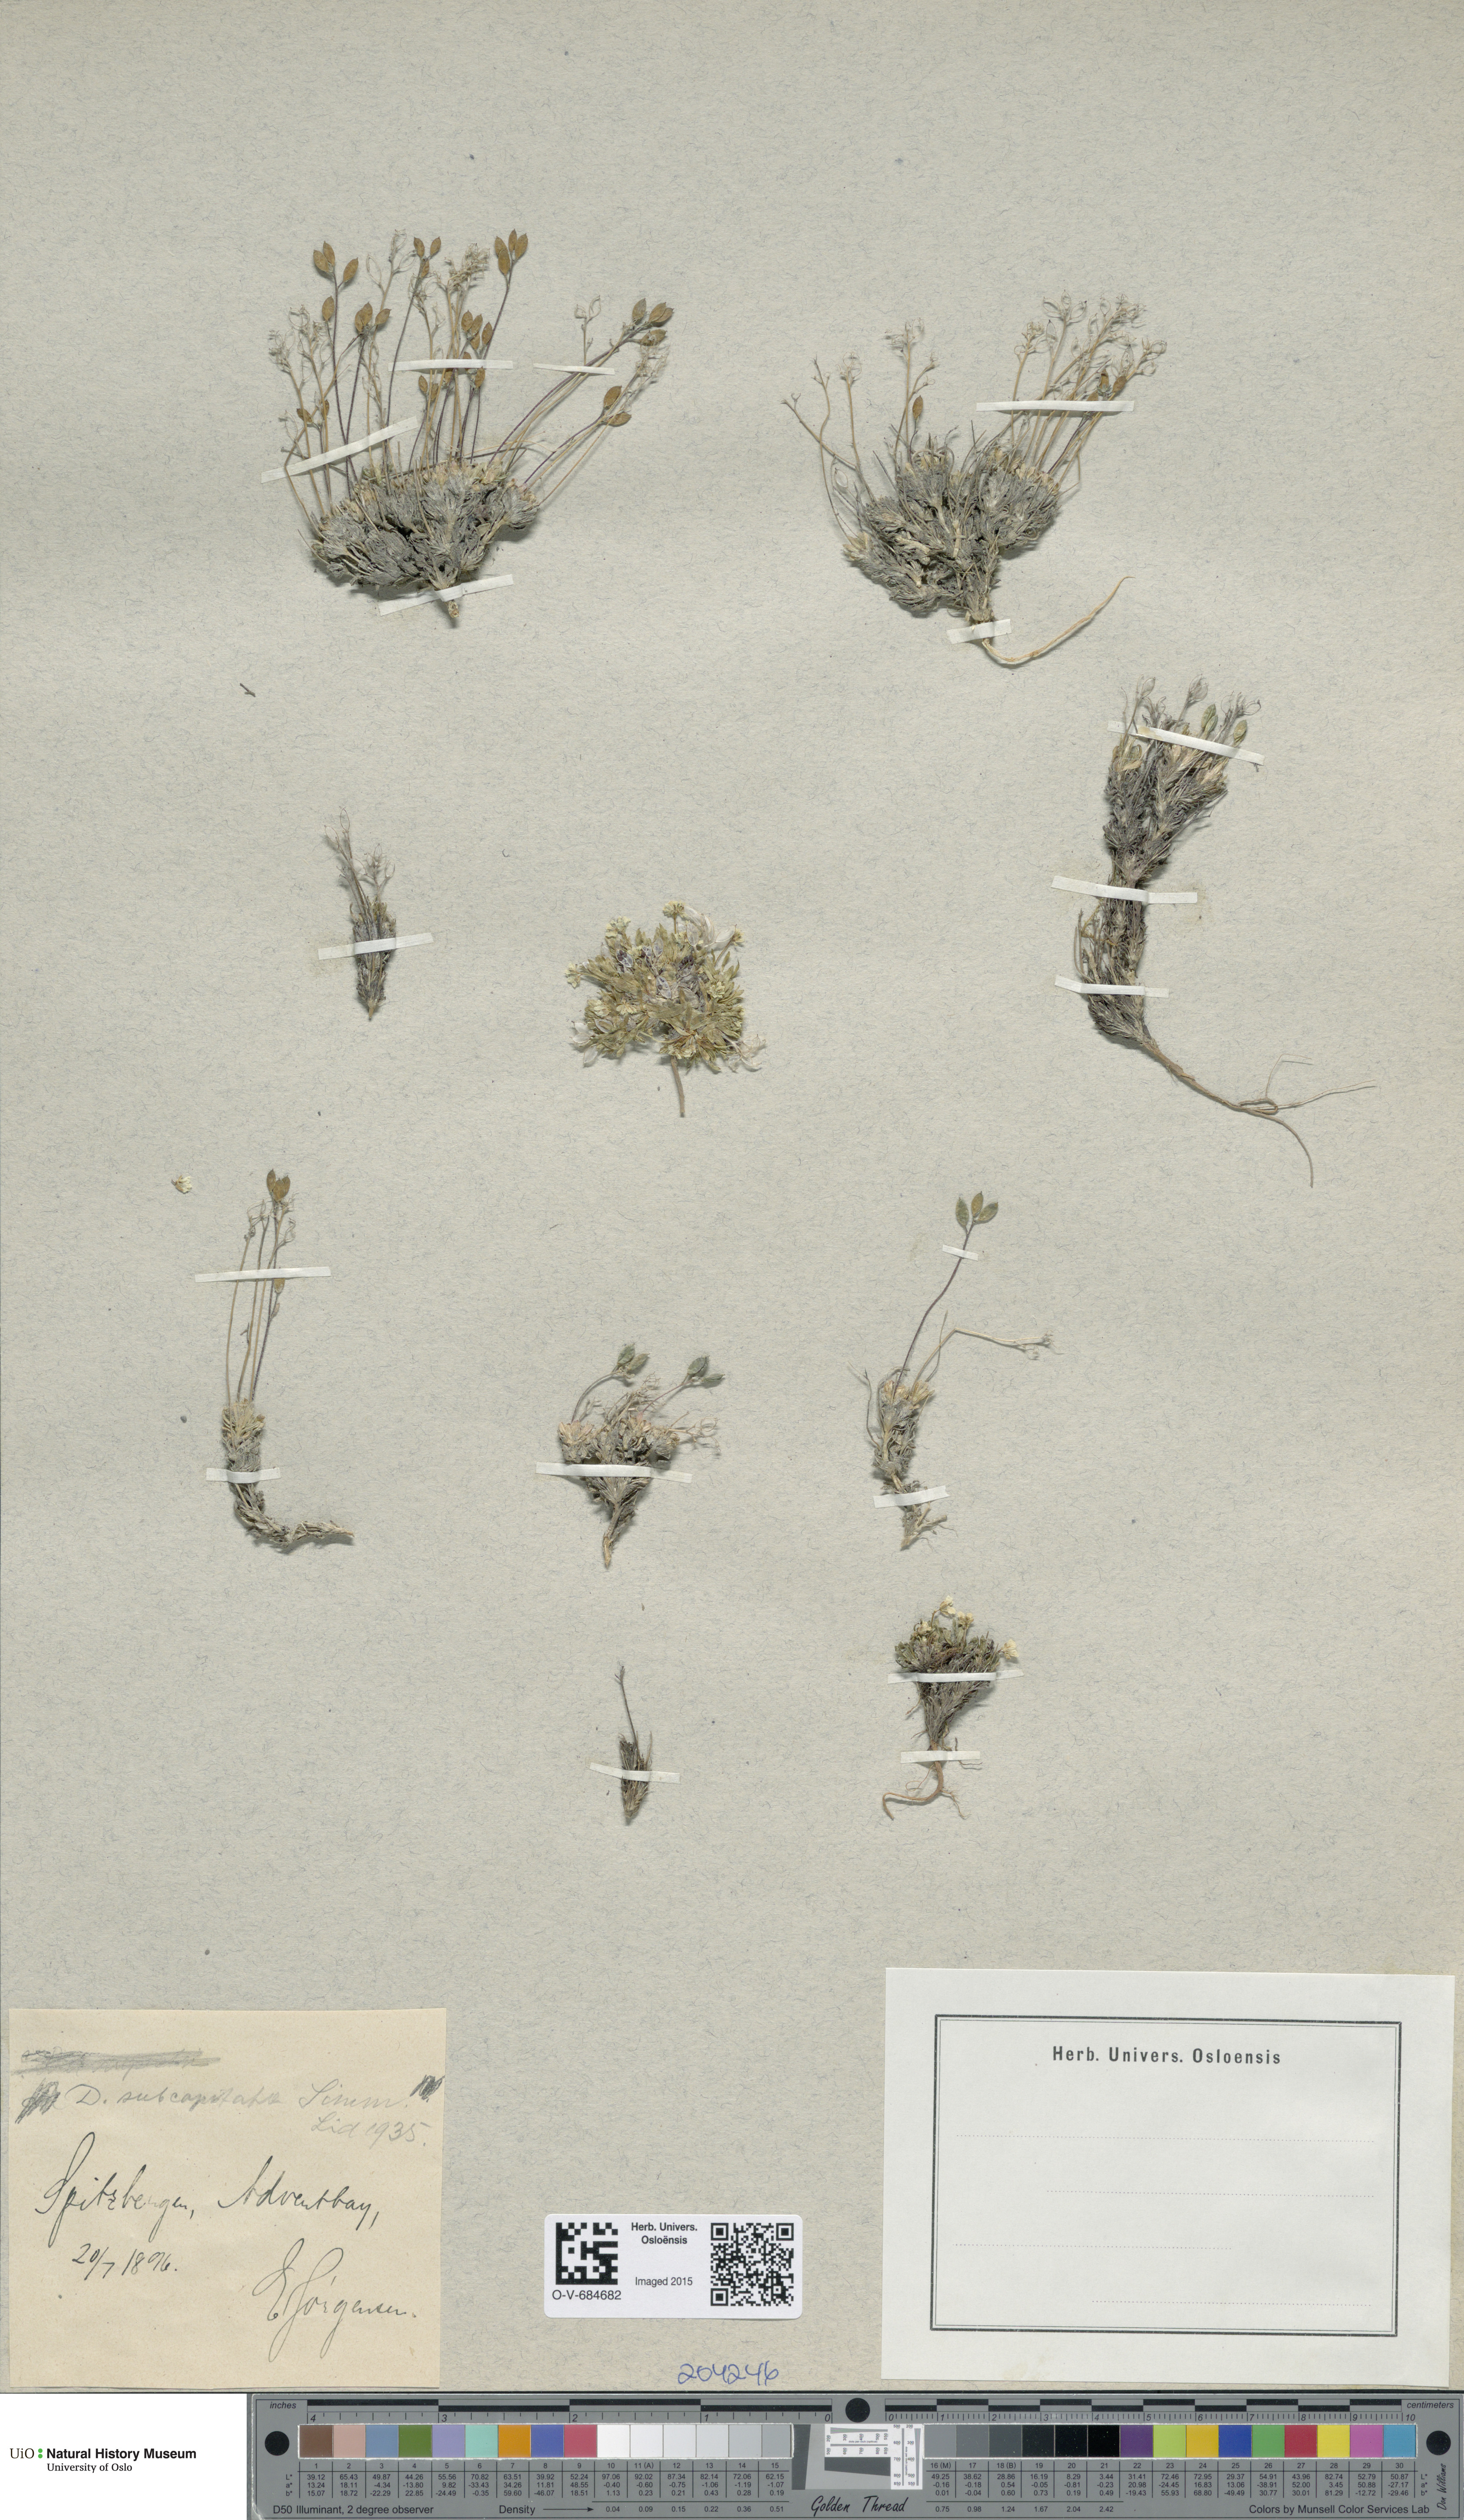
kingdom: Plantae
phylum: Tracheophyta
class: Magnoliopsida
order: Brassicales
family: Brassicaceae
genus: Draba
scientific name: Draba subcapitata
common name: Ellesmere island draba
